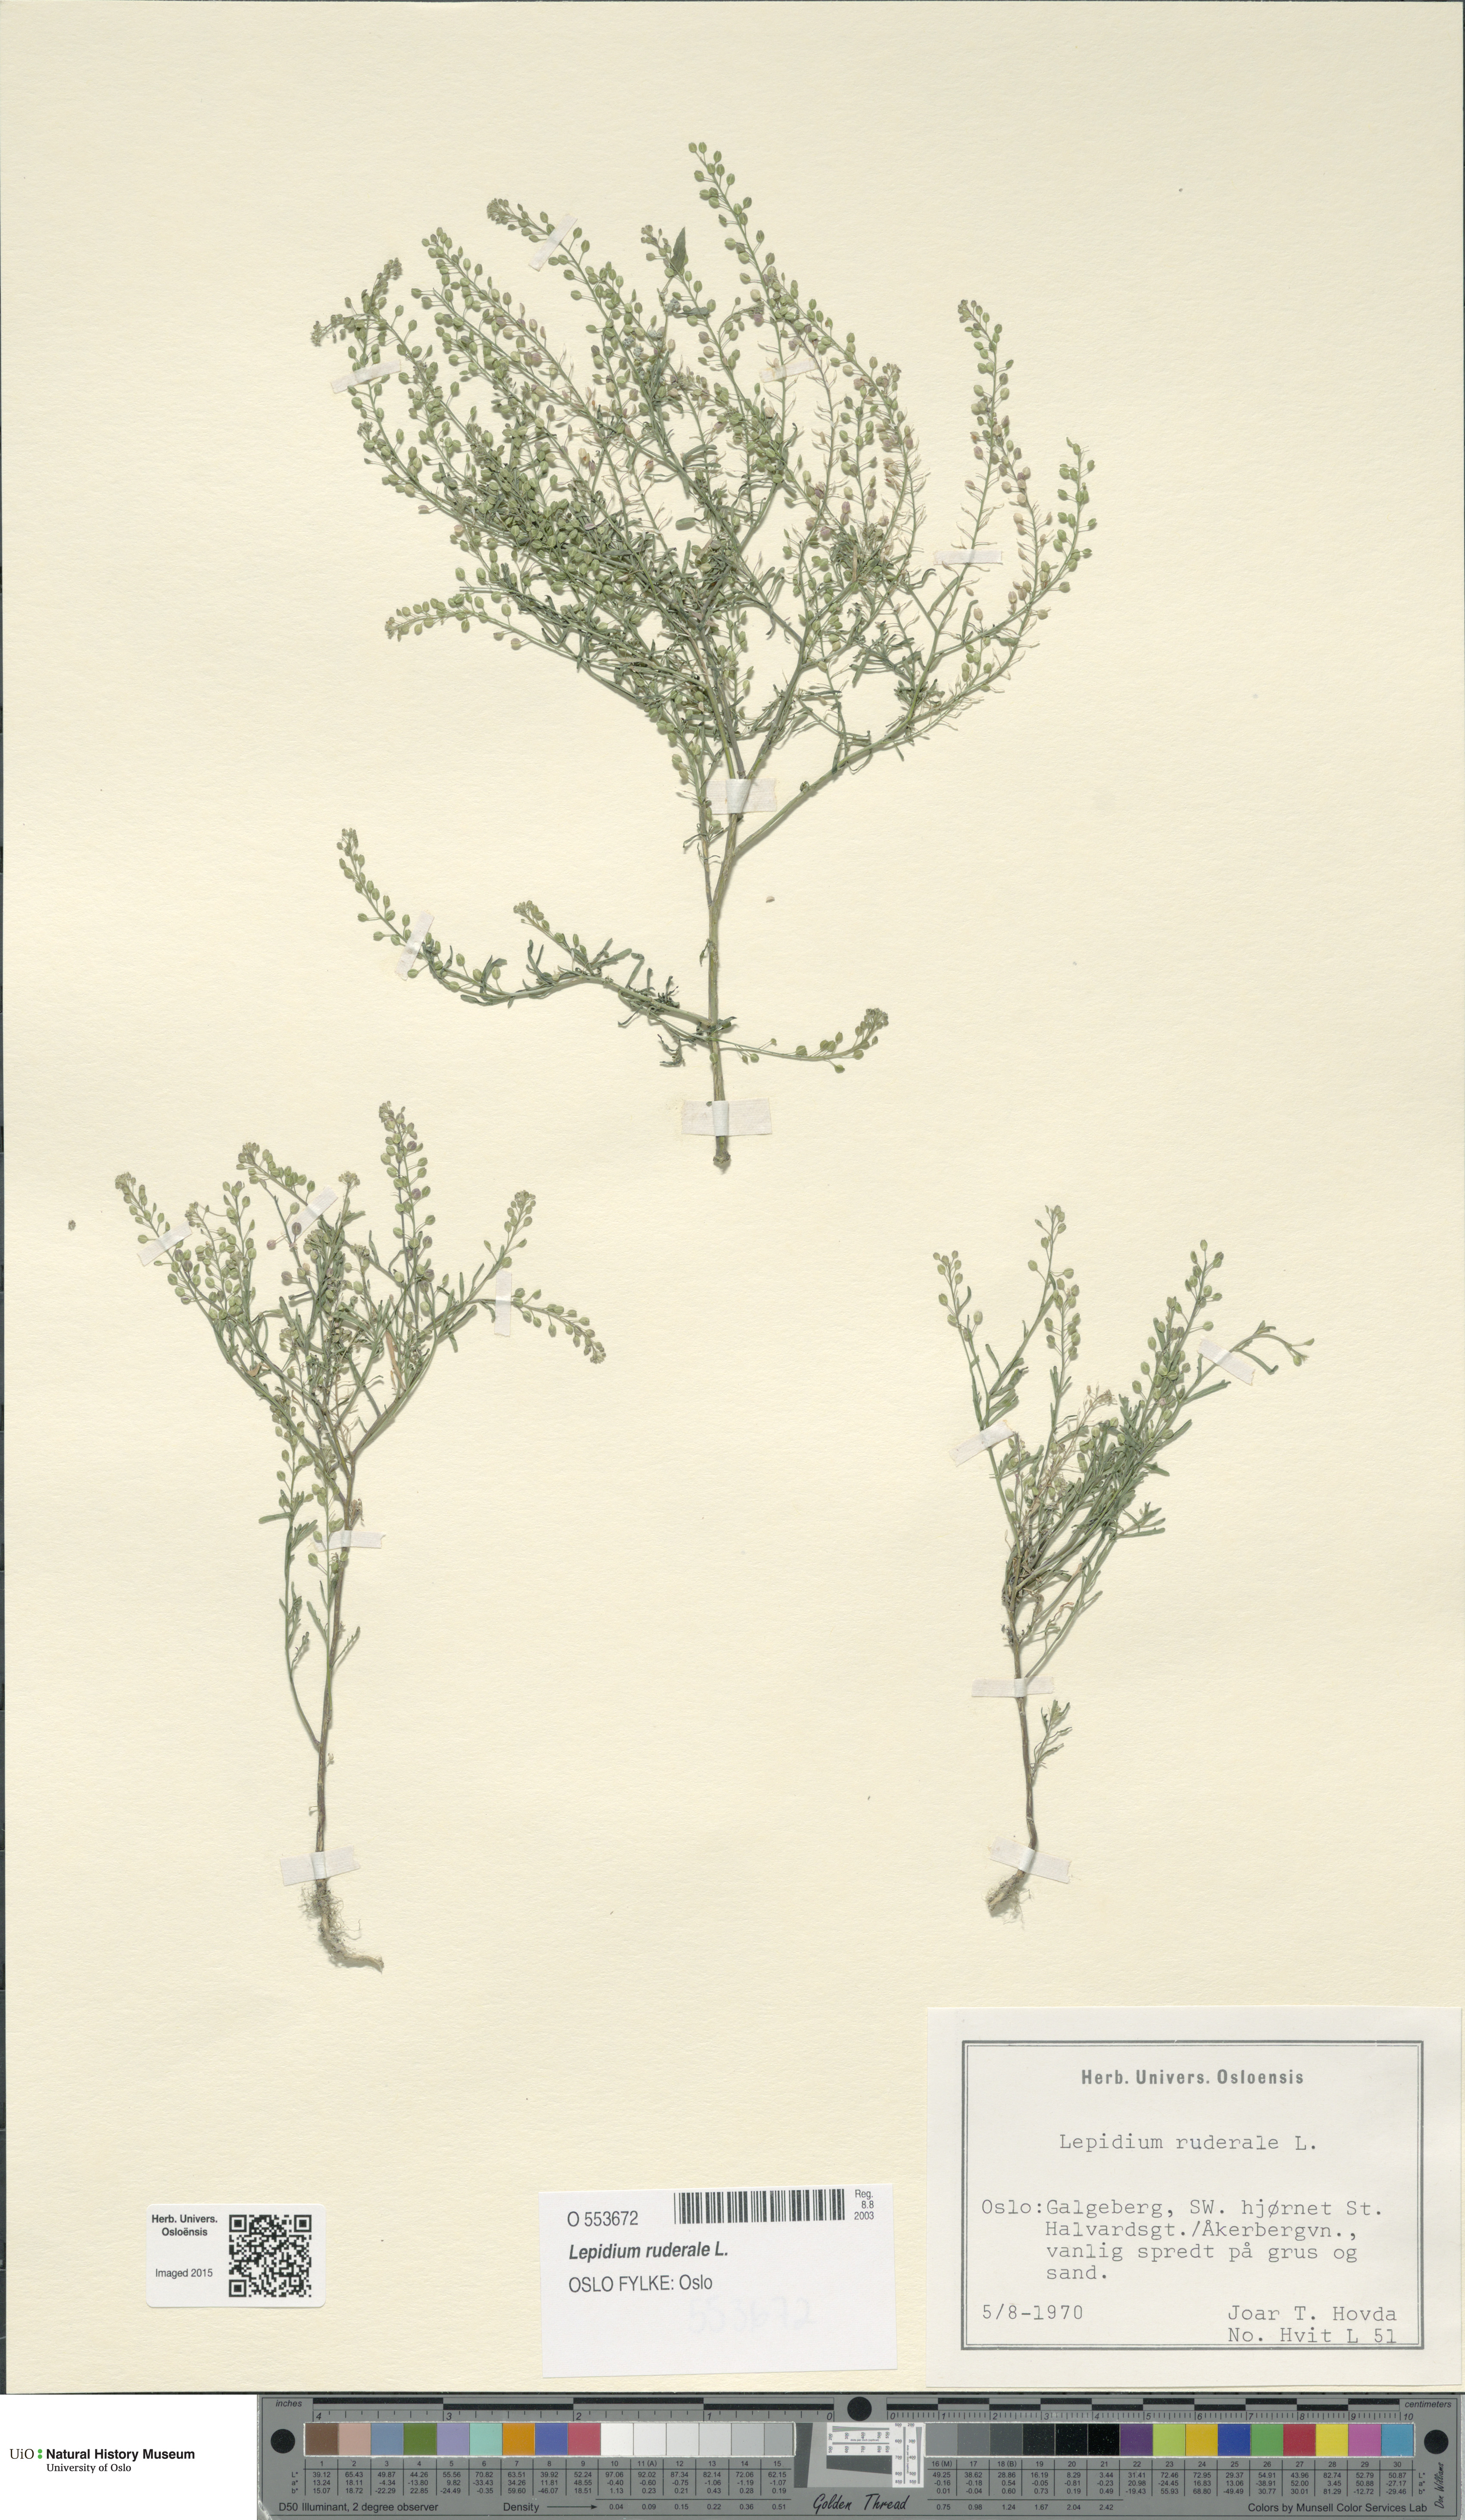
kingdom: Plantae
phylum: Tracheophyta
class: Magnoliopsida
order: Brassicales
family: Brassicaceae
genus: Lepidium
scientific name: Lepidium ruderale
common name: Narrow-leaved pepperwort
